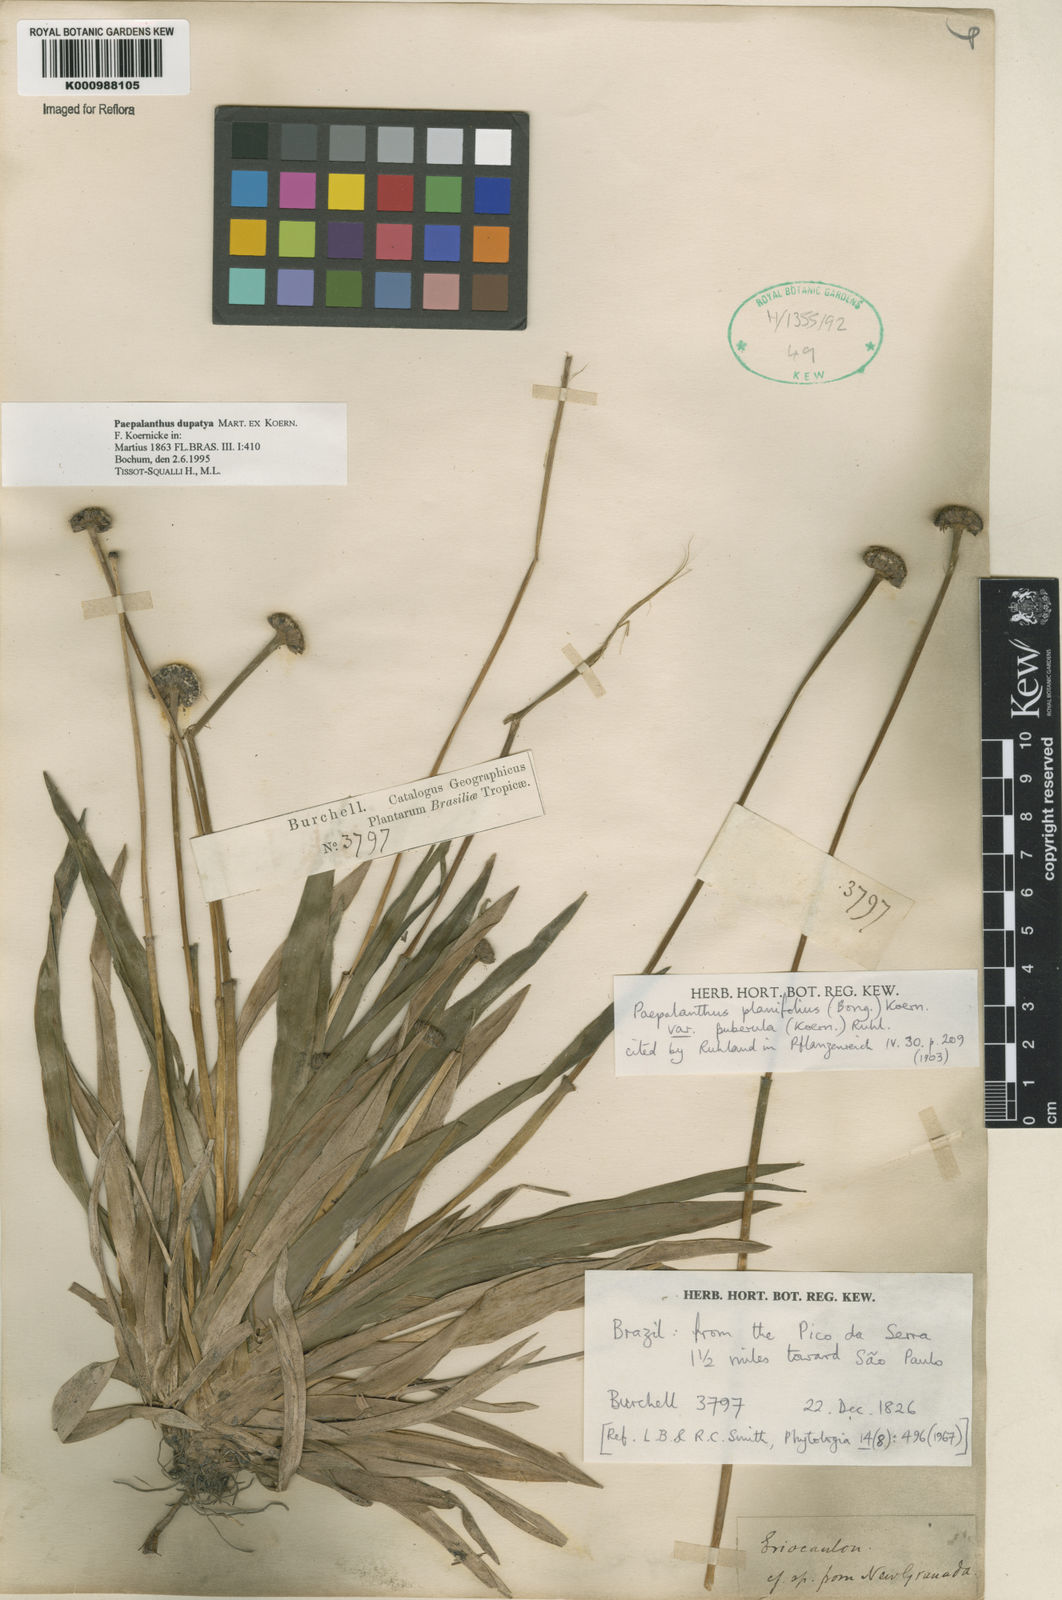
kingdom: Plantae
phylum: Tracheophyta
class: Liliopsida
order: Poales
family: Eriocaulaceae
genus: Paepalanthus
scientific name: Paepalanthus
